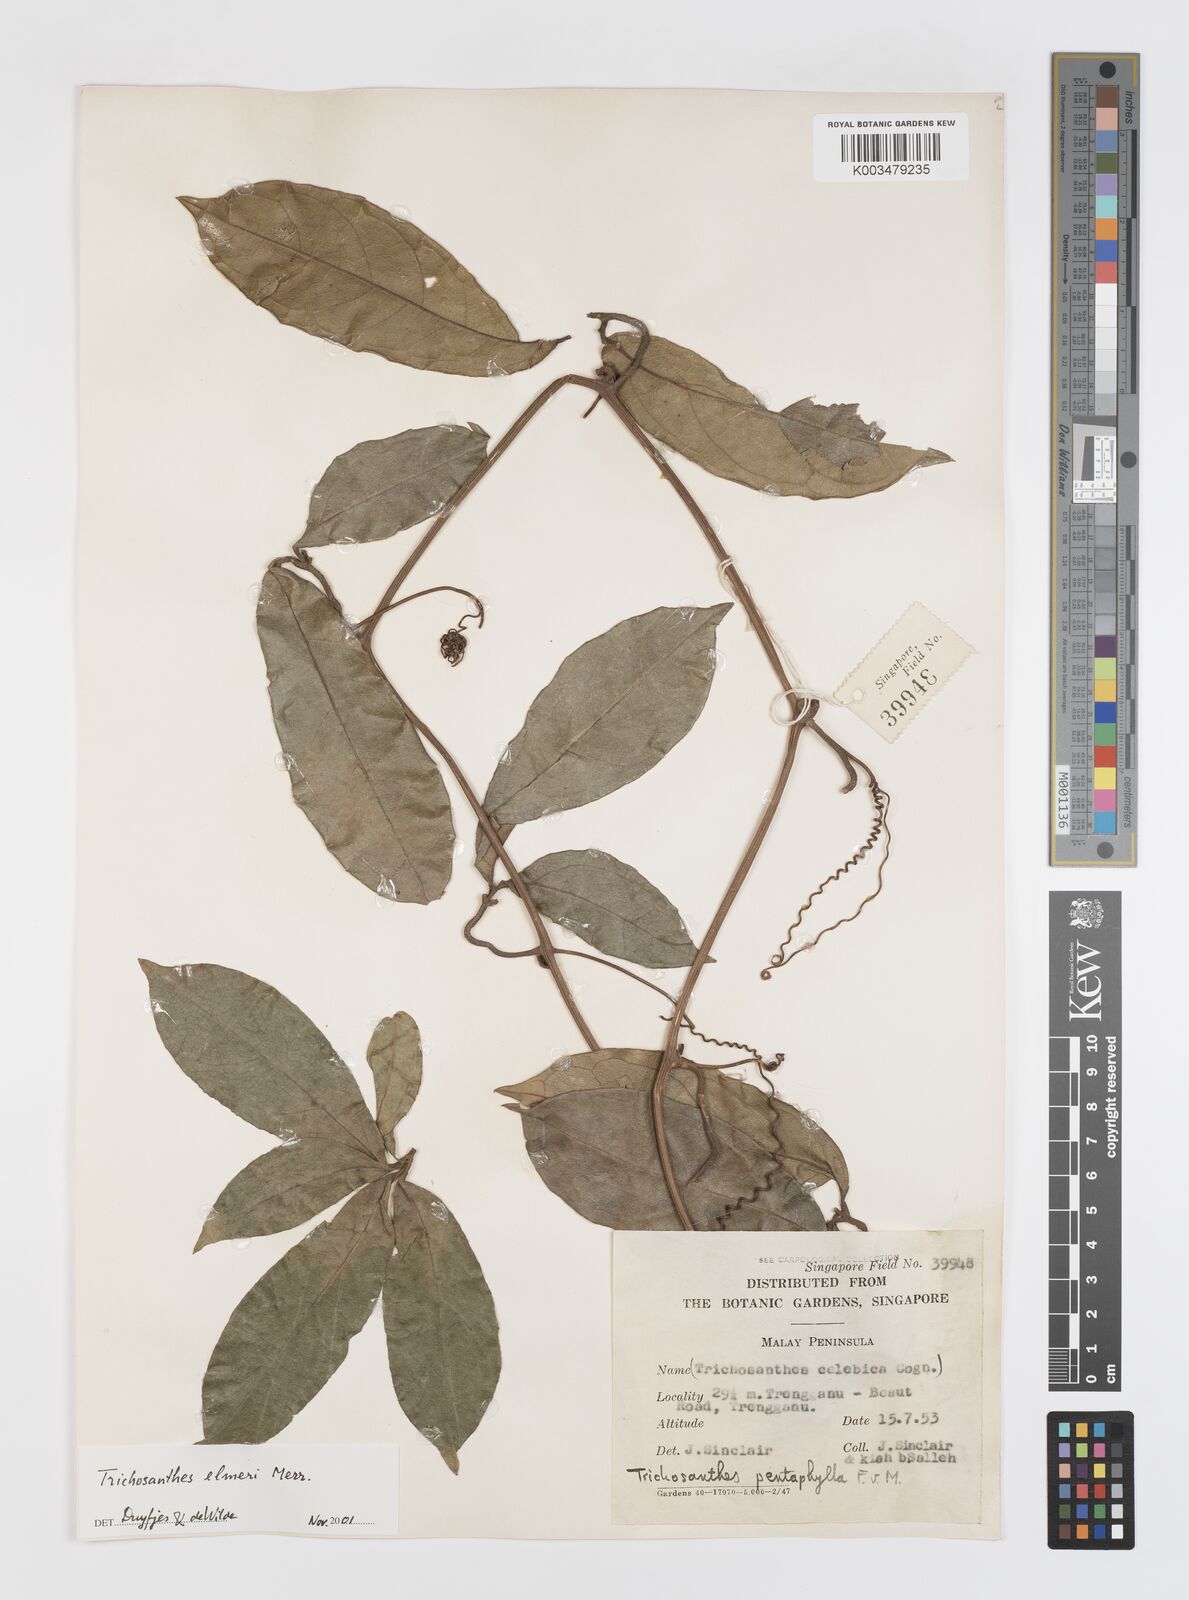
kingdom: Plantae
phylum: Tracheophyta
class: Magnoliopsida
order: Cucurbitales
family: Cucurbitaceae
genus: Trichosanthes
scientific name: Trichosanthes elmeri
